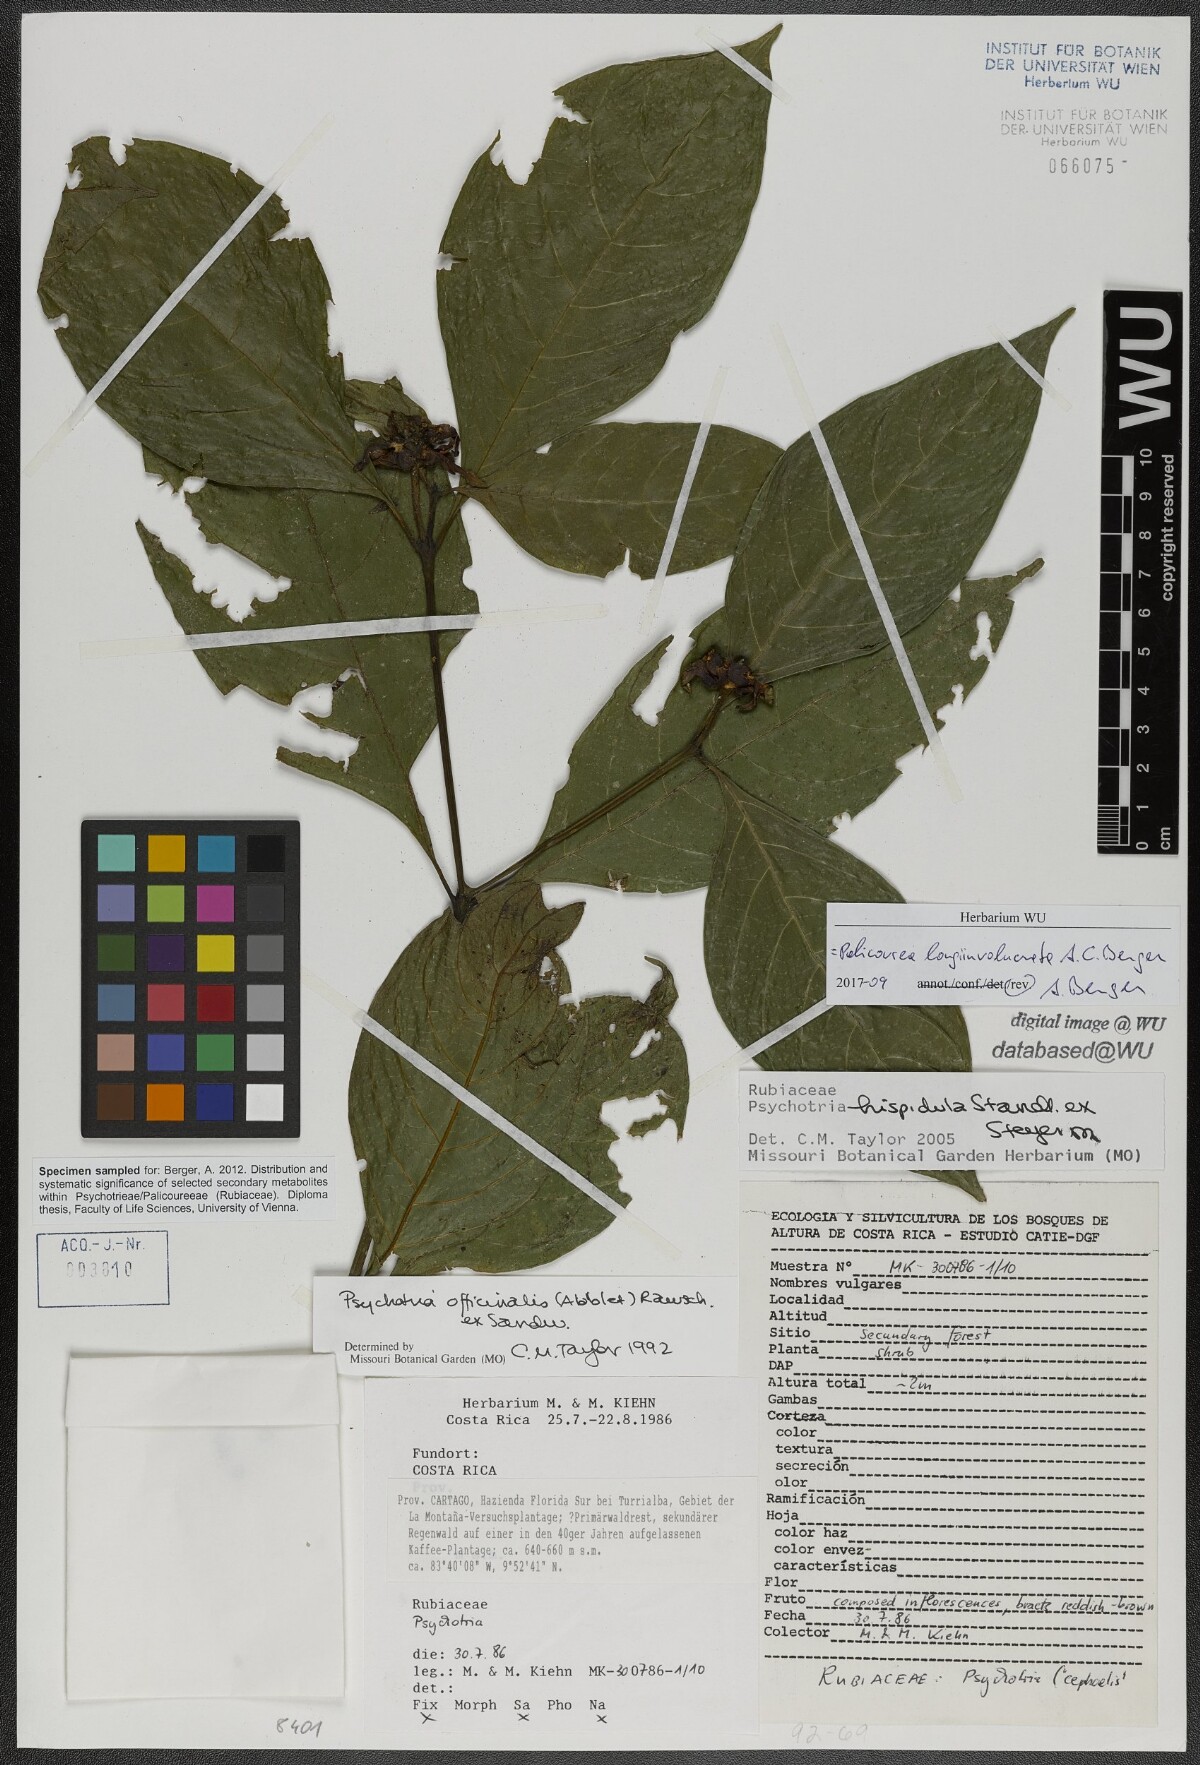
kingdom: Plantae
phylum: Tracheophyta
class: Magnoliopsida
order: Gentianales
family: Rubiaceae
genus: Palicourea
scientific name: Palicourea longiinvolucrata
